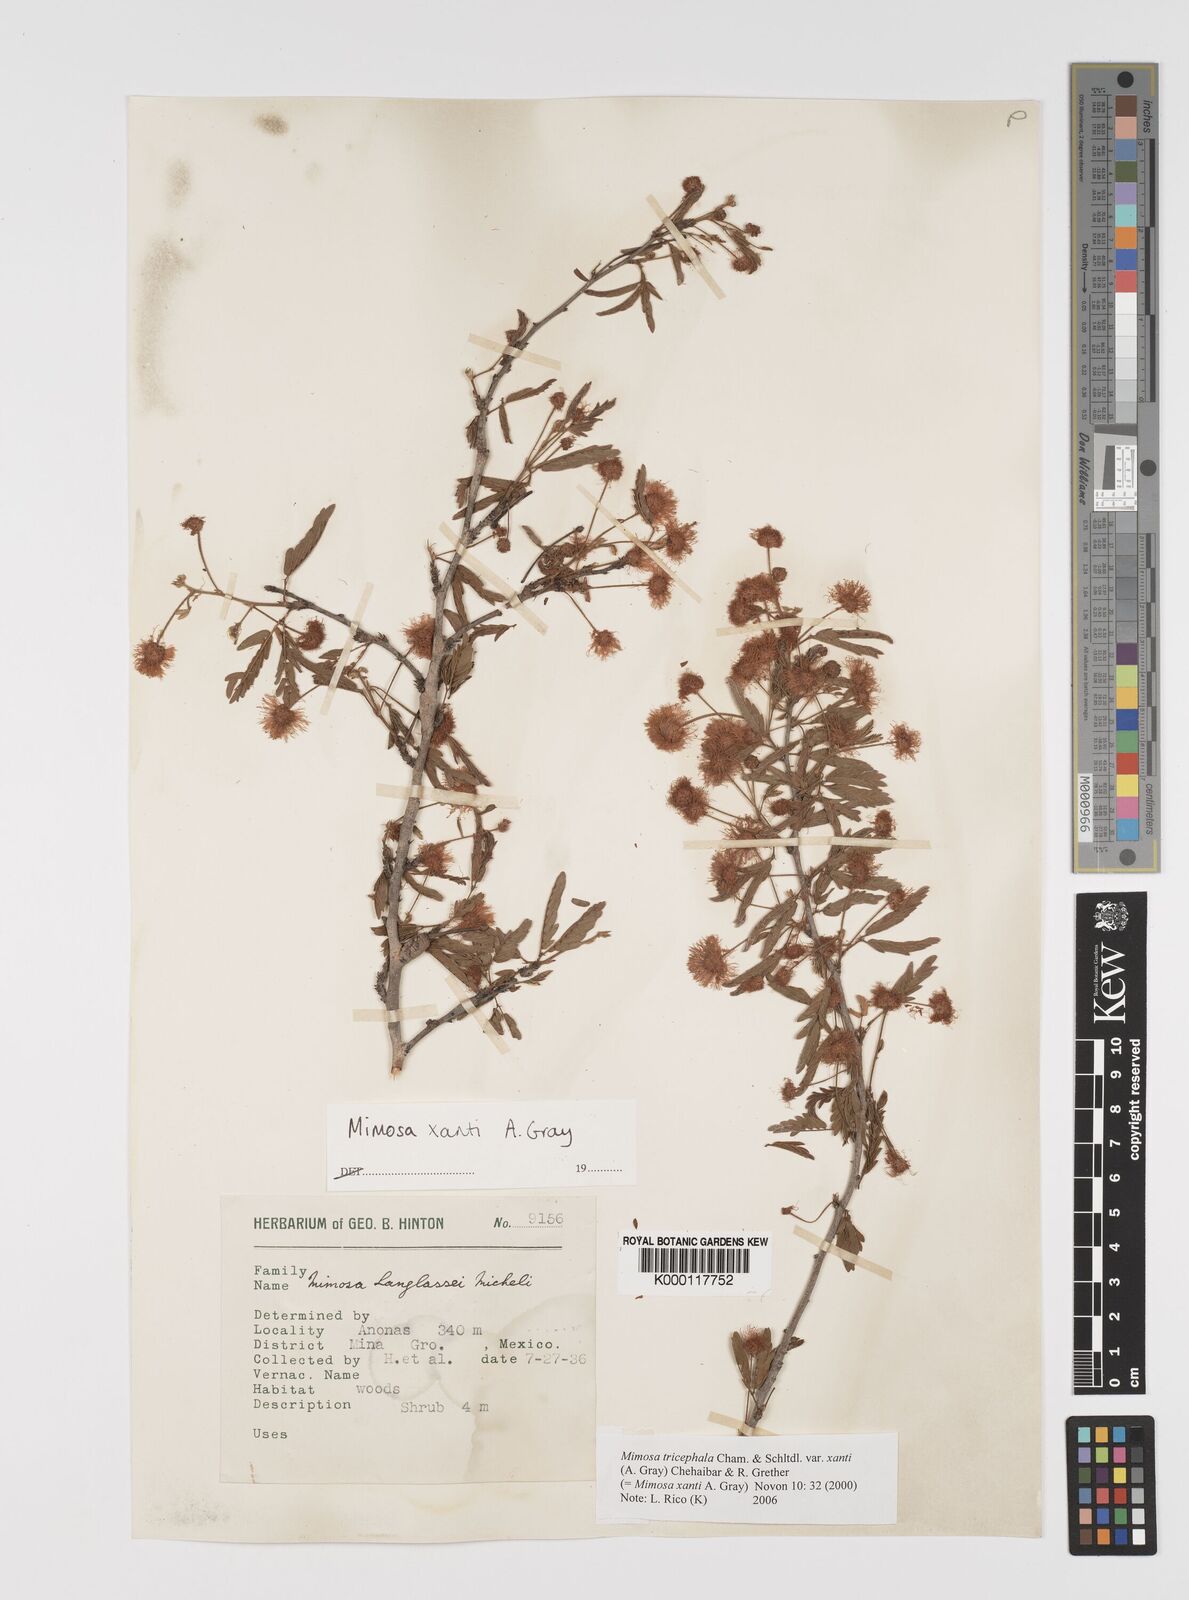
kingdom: Plantae
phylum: Tracheophyta
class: Magnoliopsida
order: Fabales
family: Fabaceae
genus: Mimosa
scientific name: Mimosa tricephala
